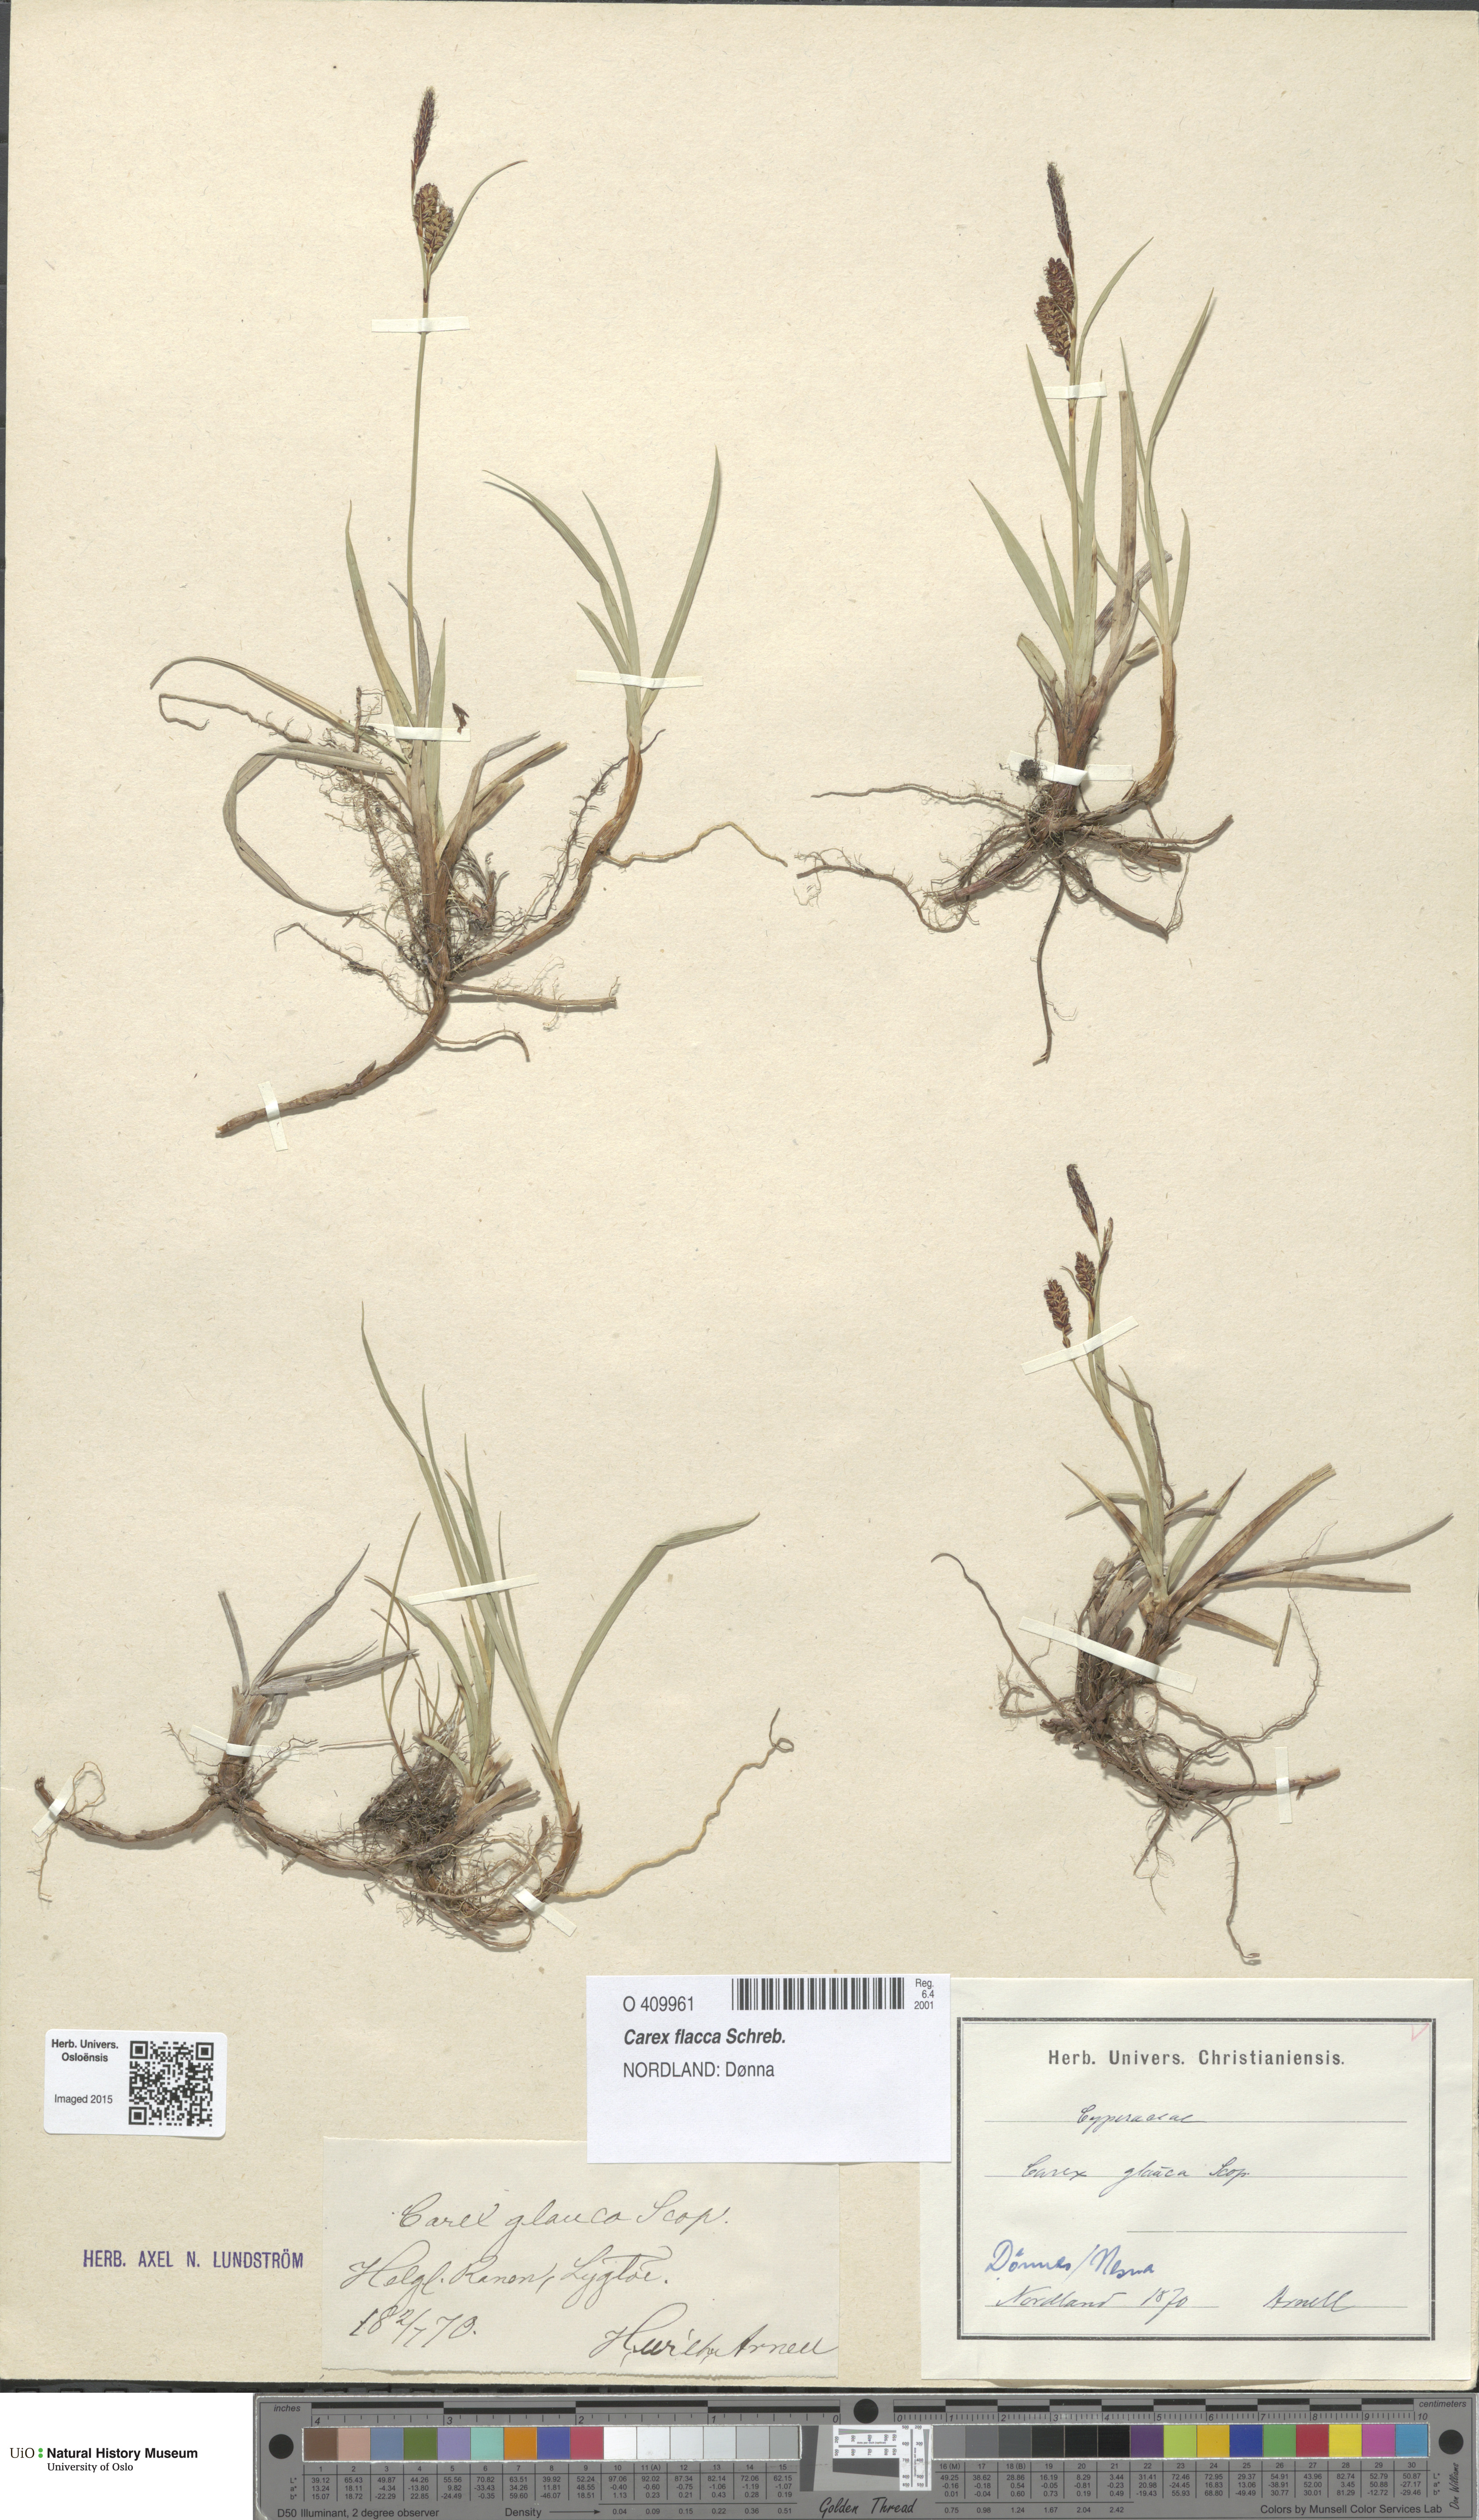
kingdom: Plantae
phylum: Tracheophyta
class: Liliopsida
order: Poales
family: Cyperaceae
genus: Carex
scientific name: Carex flacca
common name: Glaucous sedge
